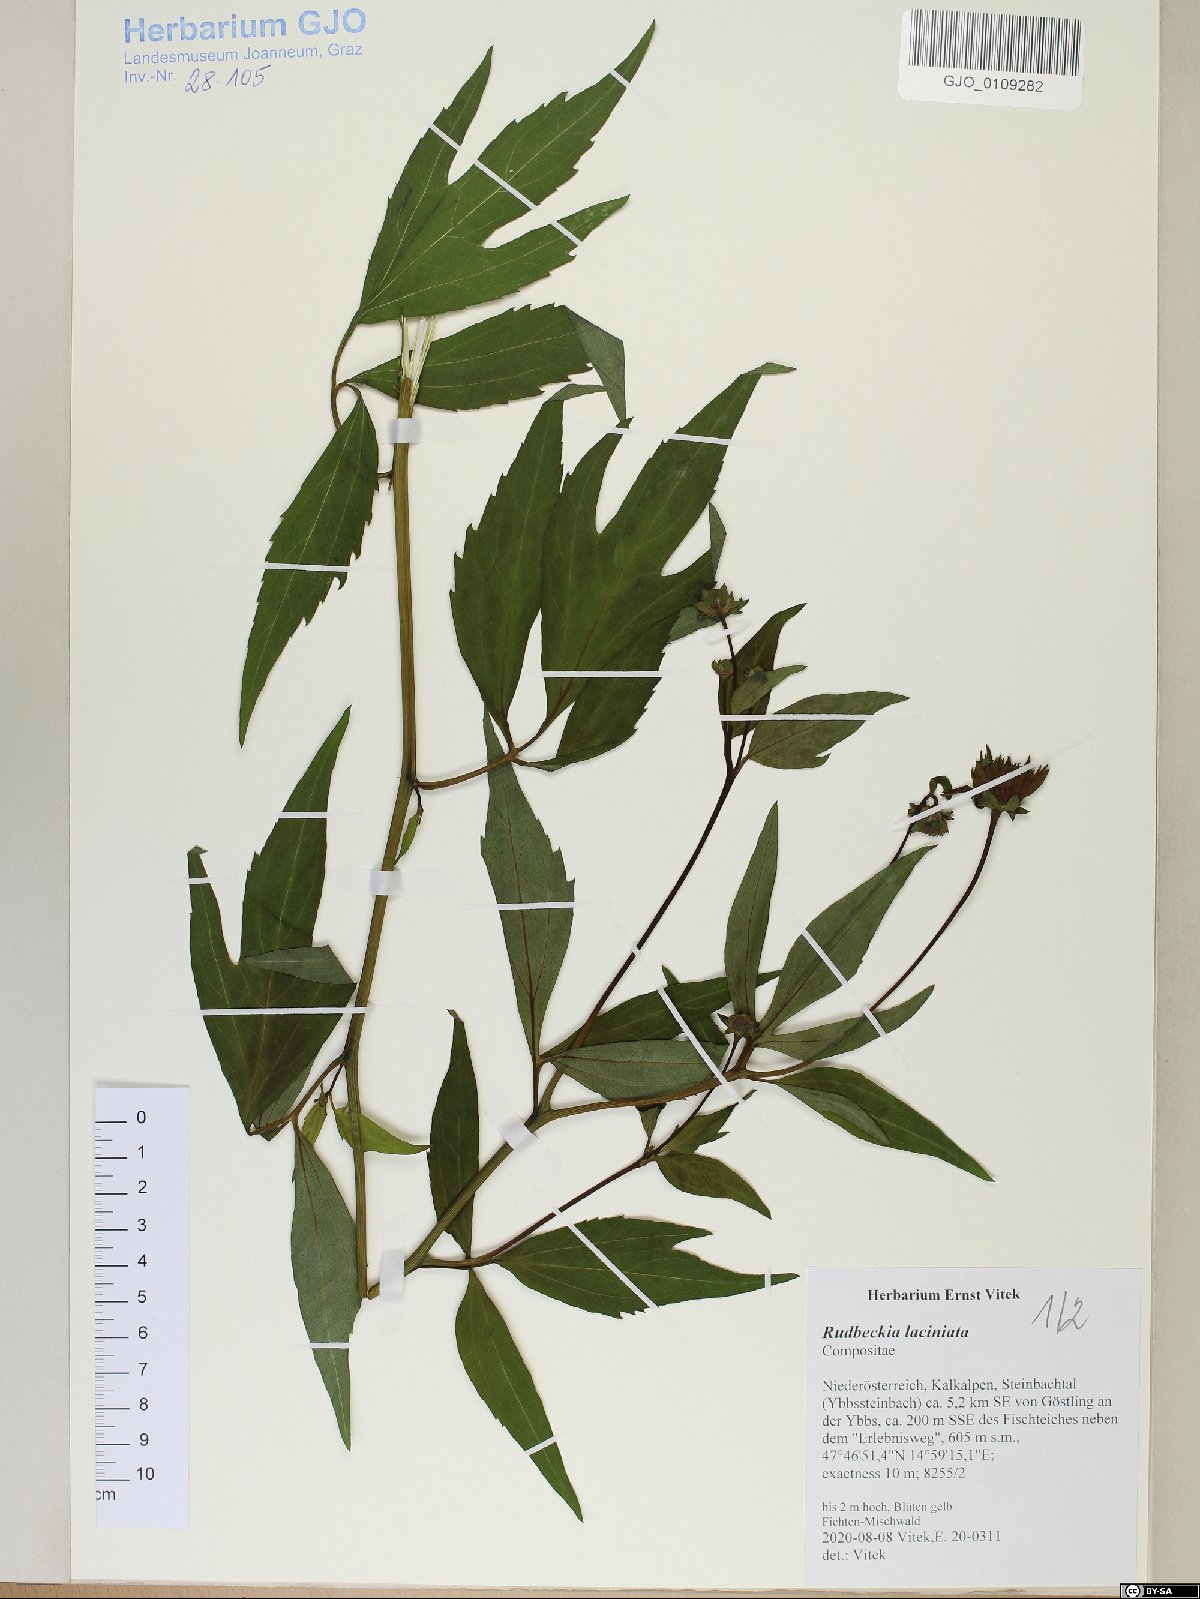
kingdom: Plantae
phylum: Tracheophyta
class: Magnoliopsida
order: Asterales
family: Asteraceae
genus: Rudbeckia
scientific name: Rudbeckia laciniata
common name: Coneflower
